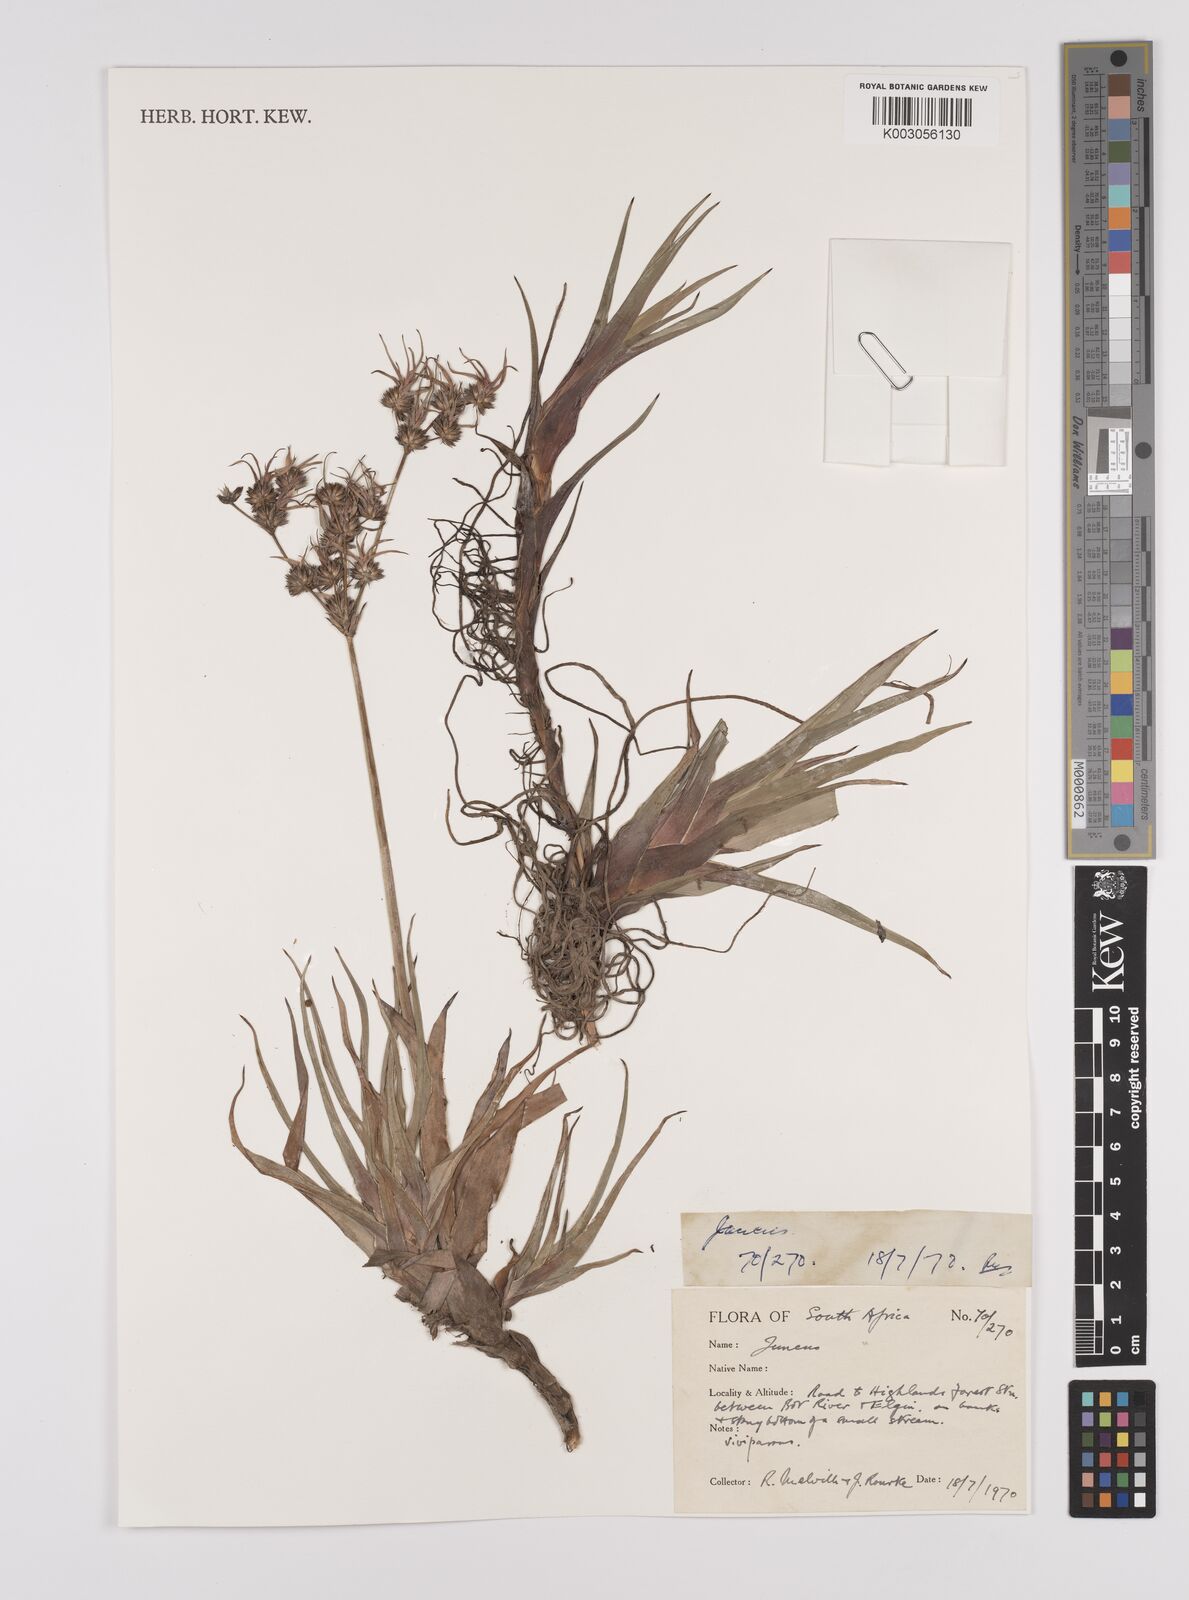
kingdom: Plantae
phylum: Tracheophyta
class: Liliopsida
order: Poales
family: Juncaceae
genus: Juncus
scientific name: Juncus
